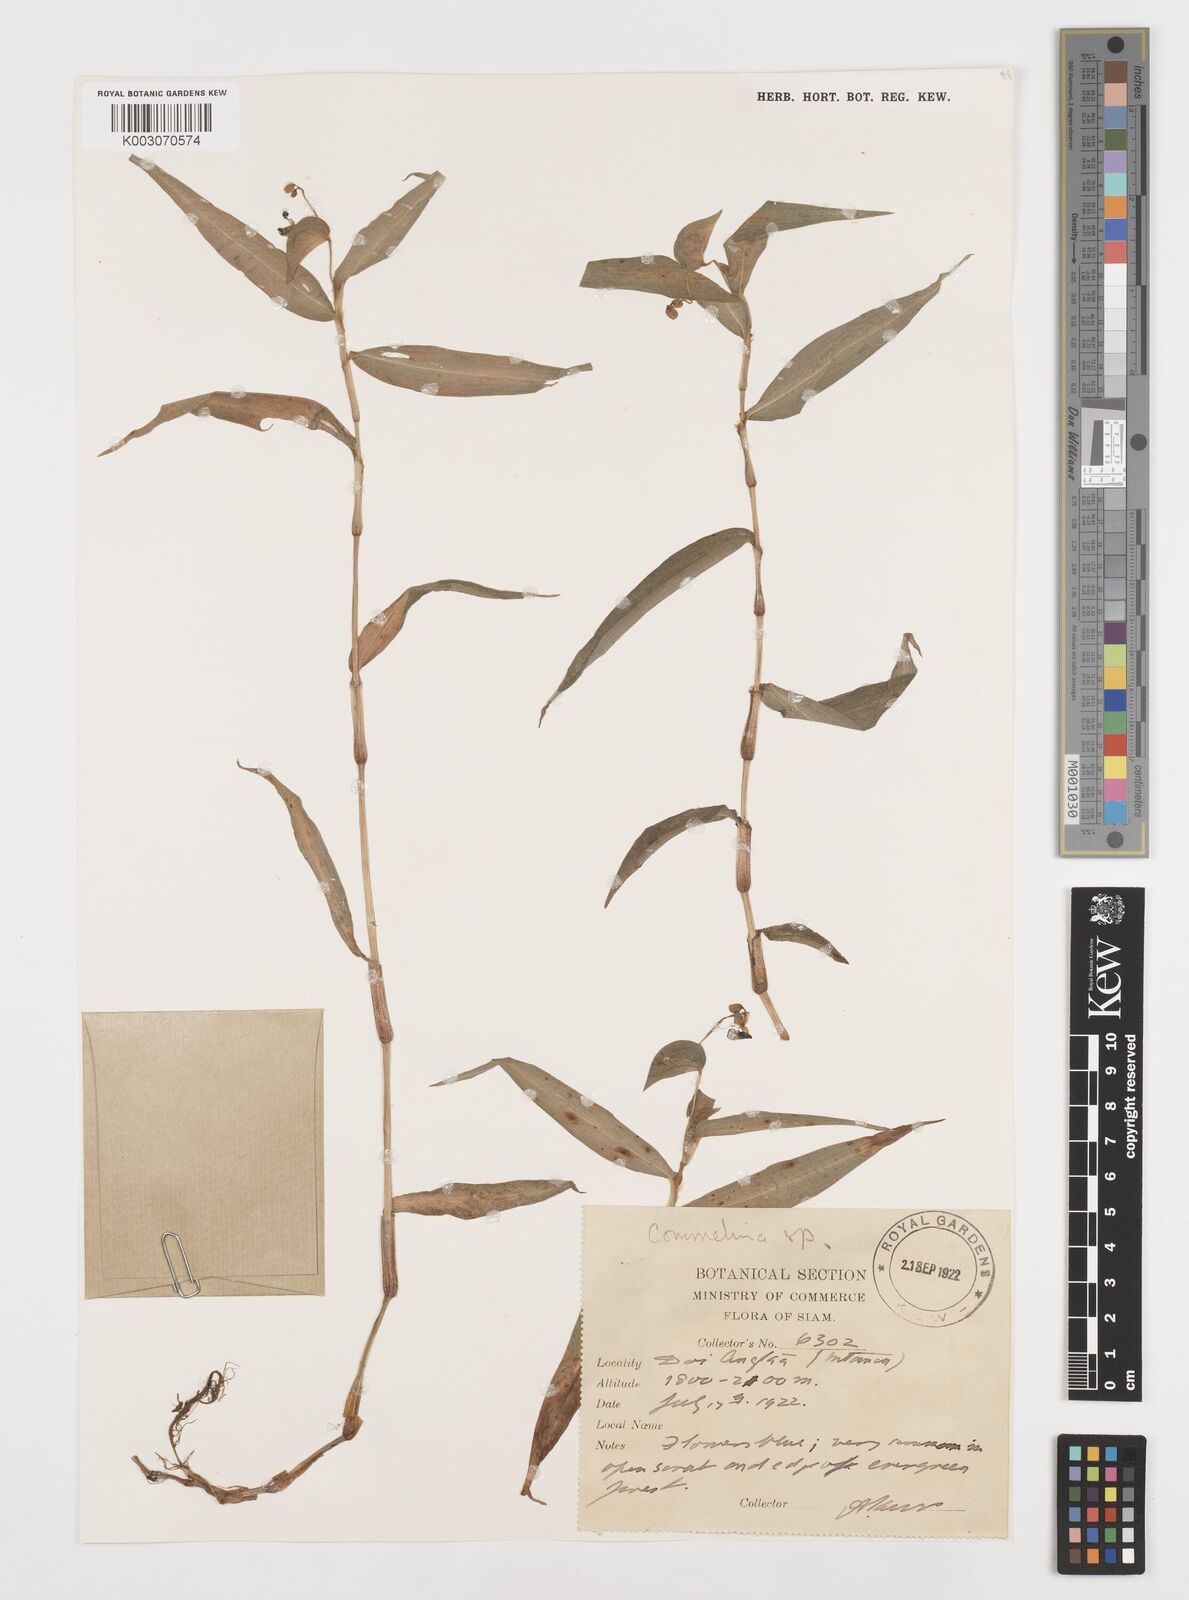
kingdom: Plantae
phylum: Tracheophyta
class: Liliopsida
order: Commelinales
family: Commelinaceae
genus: Commelina
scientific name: Commelina clavata
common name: Willow leaved dayflower
